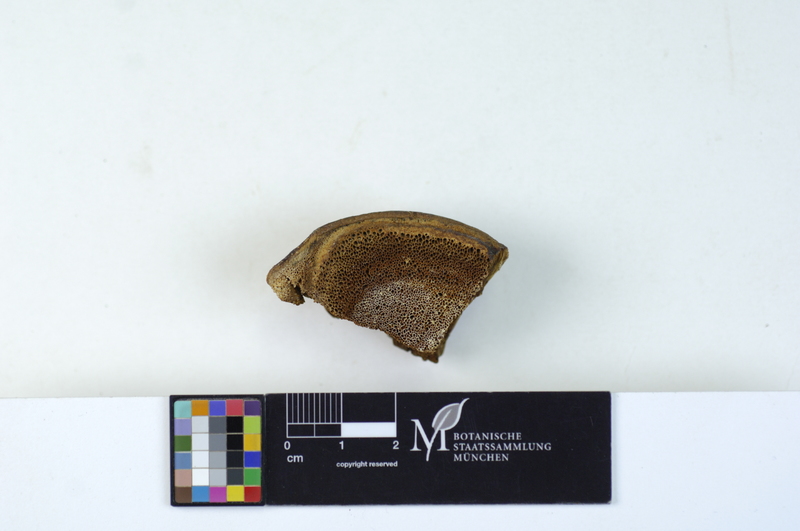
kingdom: Fungi
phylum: Basidiomycota
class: Agaricomycetes
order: Hymenochaetales
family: Hymenochaetaceae
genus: Inocutis
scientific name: Inocutis tamaricis
